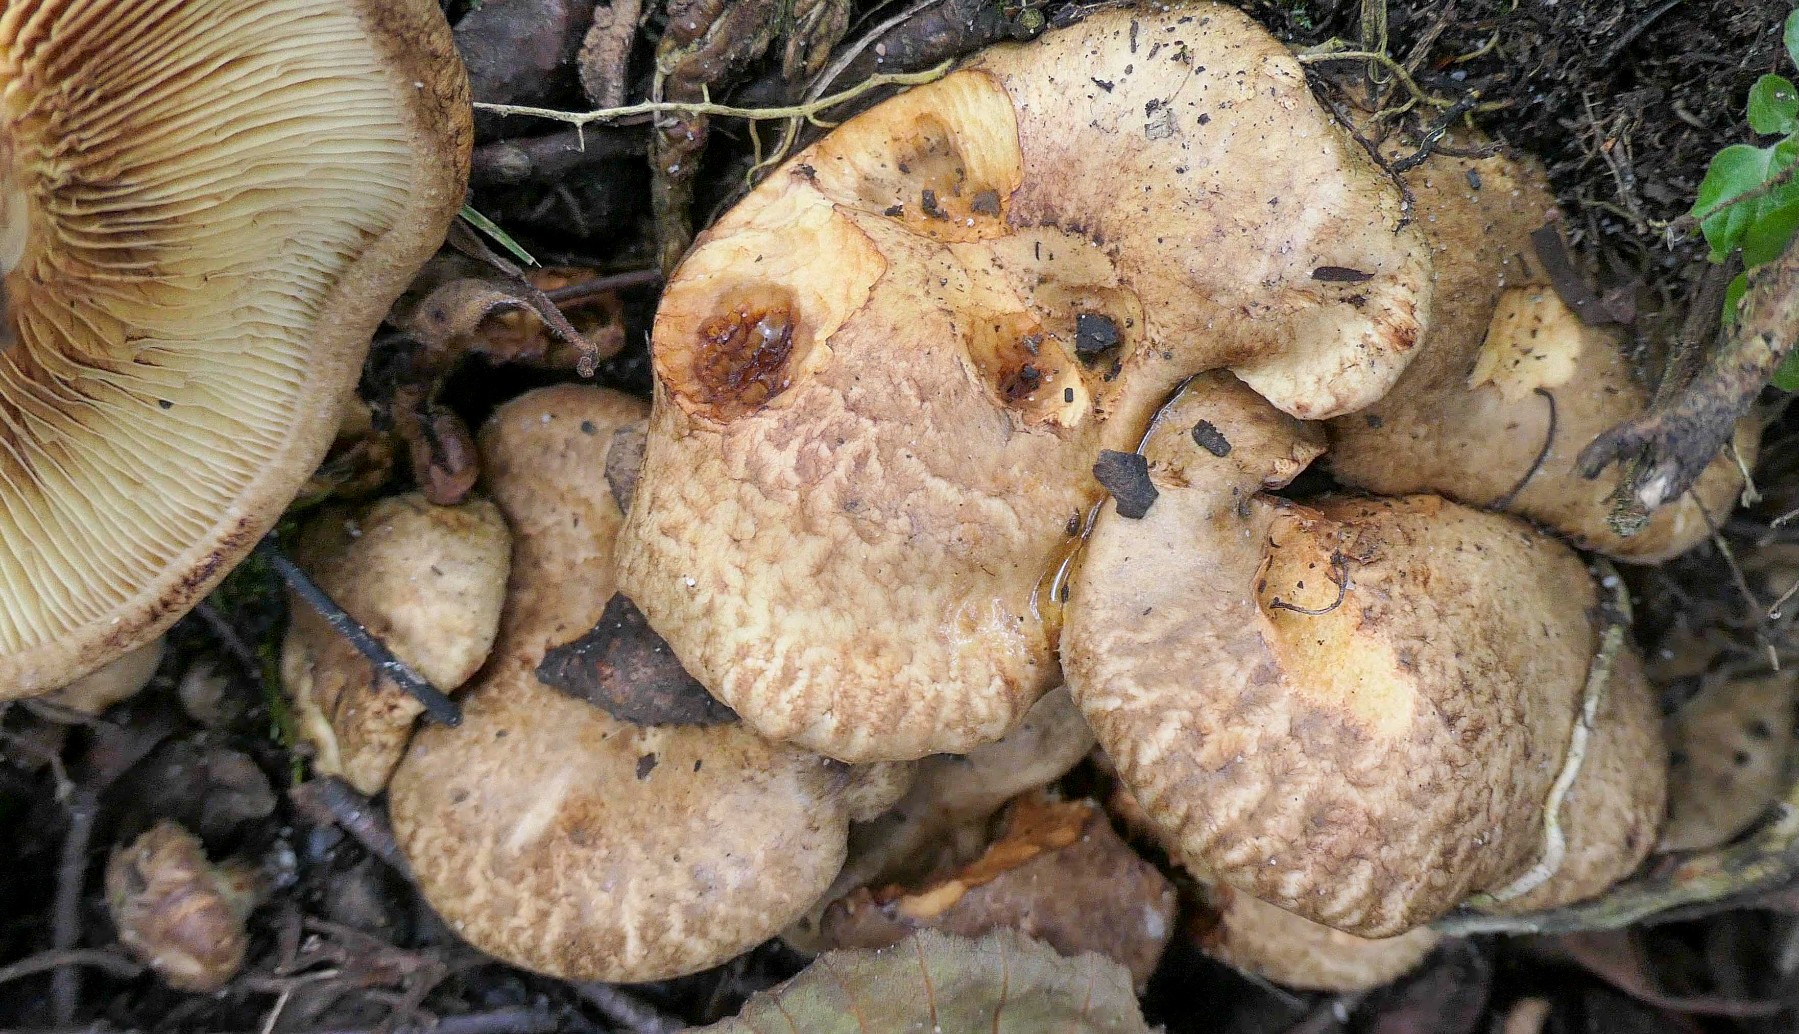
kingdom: Fungi
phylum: Basidiomycota
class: Agaricomycetes
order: Boletales
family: Paxillaceae
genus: Paxillus
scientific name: Paxillus rubicundulus
